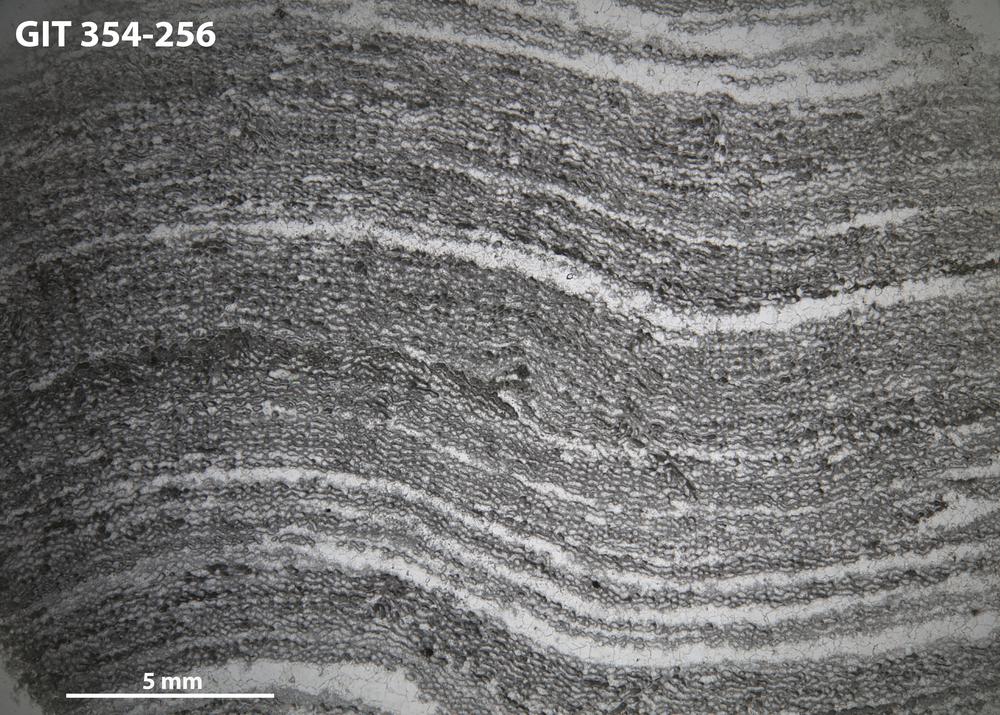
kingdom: Animalia
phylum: Porifera
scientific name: Porifera
